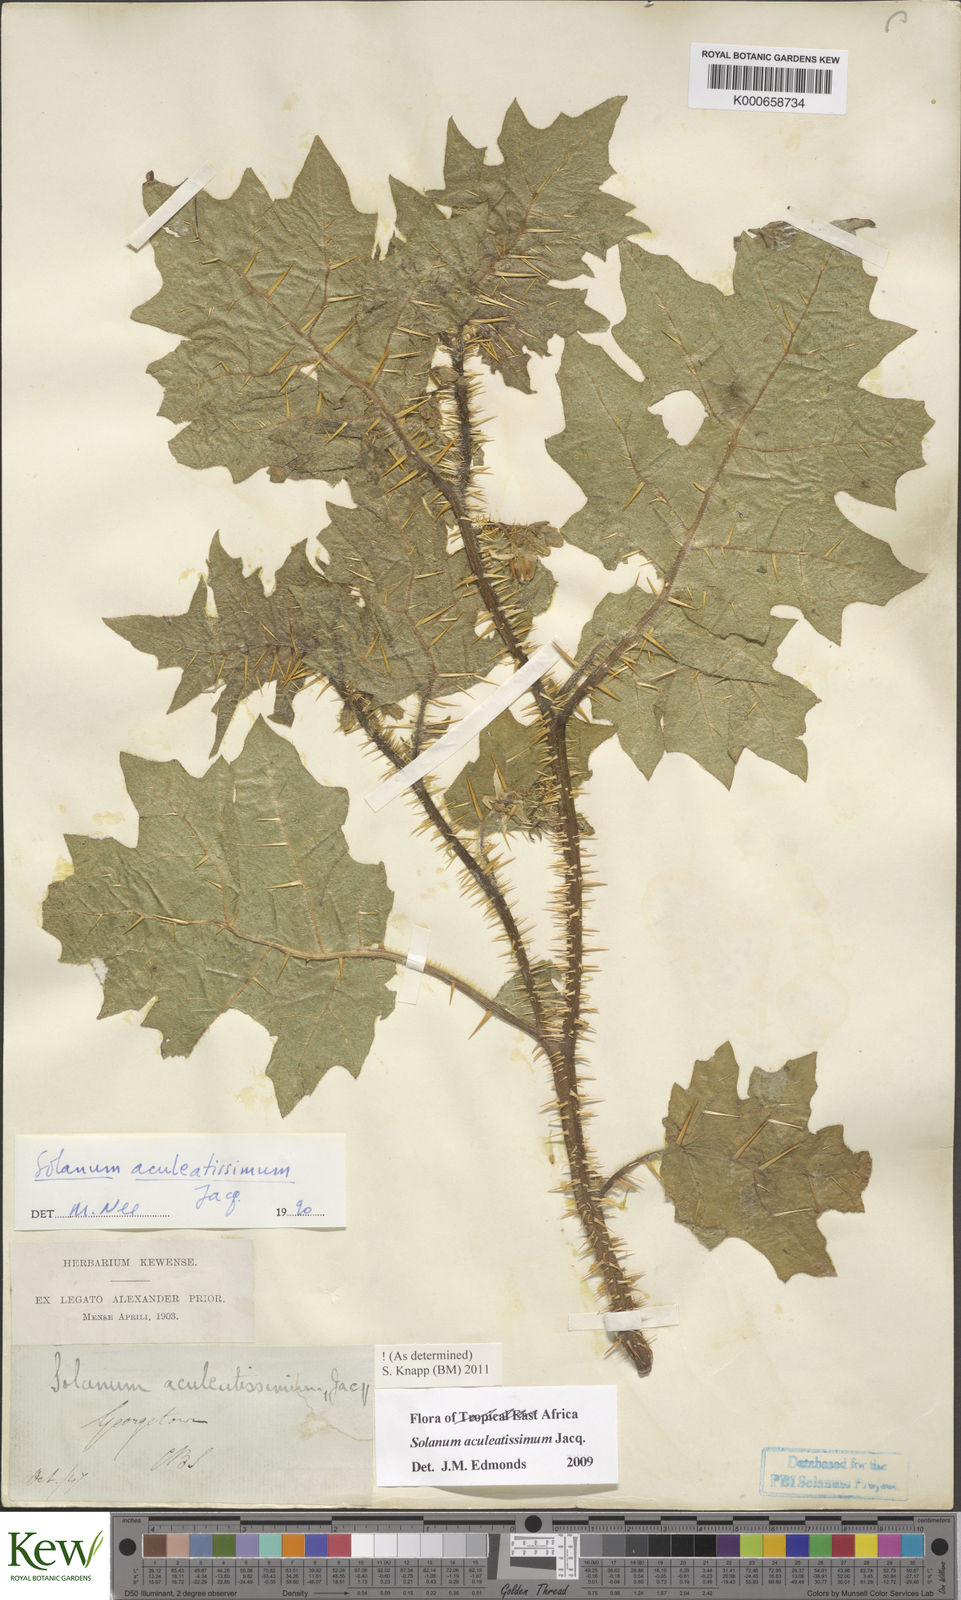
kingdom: Plantae
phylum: Tracheophyta
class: Magnoliopsida
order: Solanales
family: Solanaceae
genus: Solanum
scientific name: Solanum aculeatissimum
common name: Dutch eggplant
